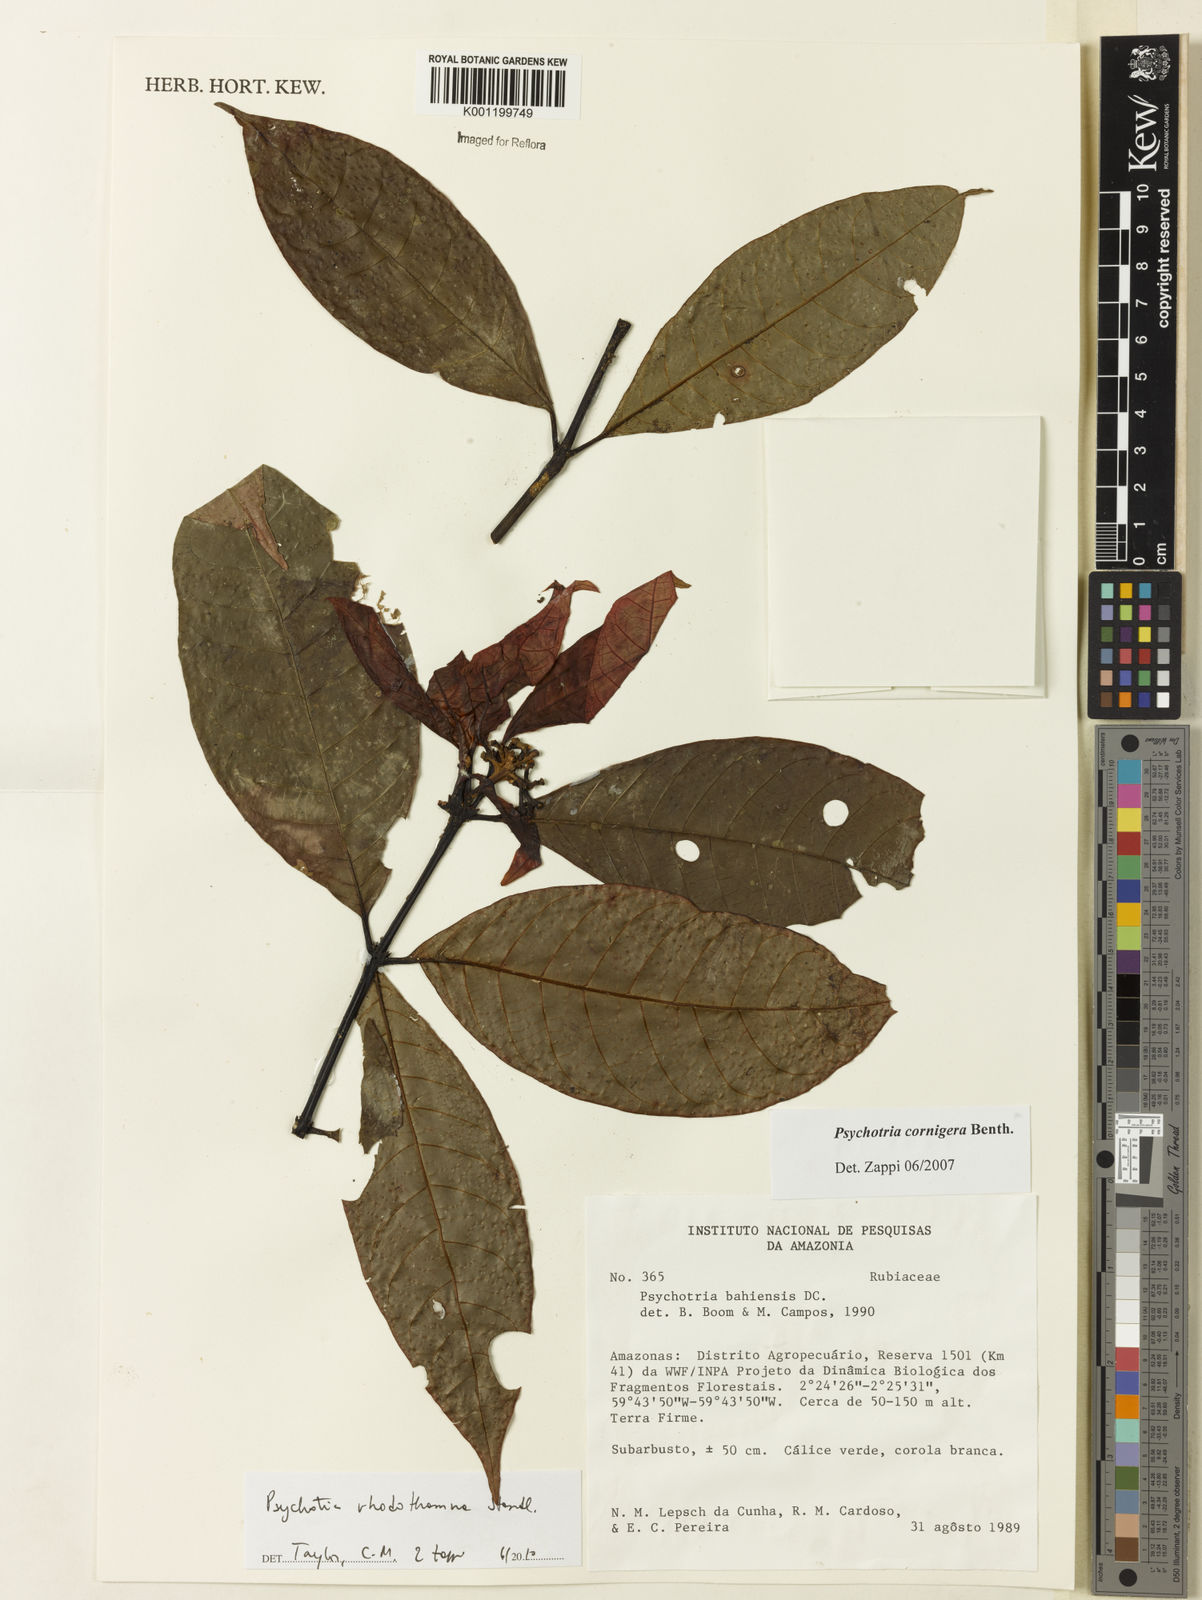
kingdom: Plantae
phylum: Tracheophyta
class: Magnoliopsida
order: Gentianales
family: Rubiaceae
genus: Palicourea
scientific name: Palicourea rhodothamna
